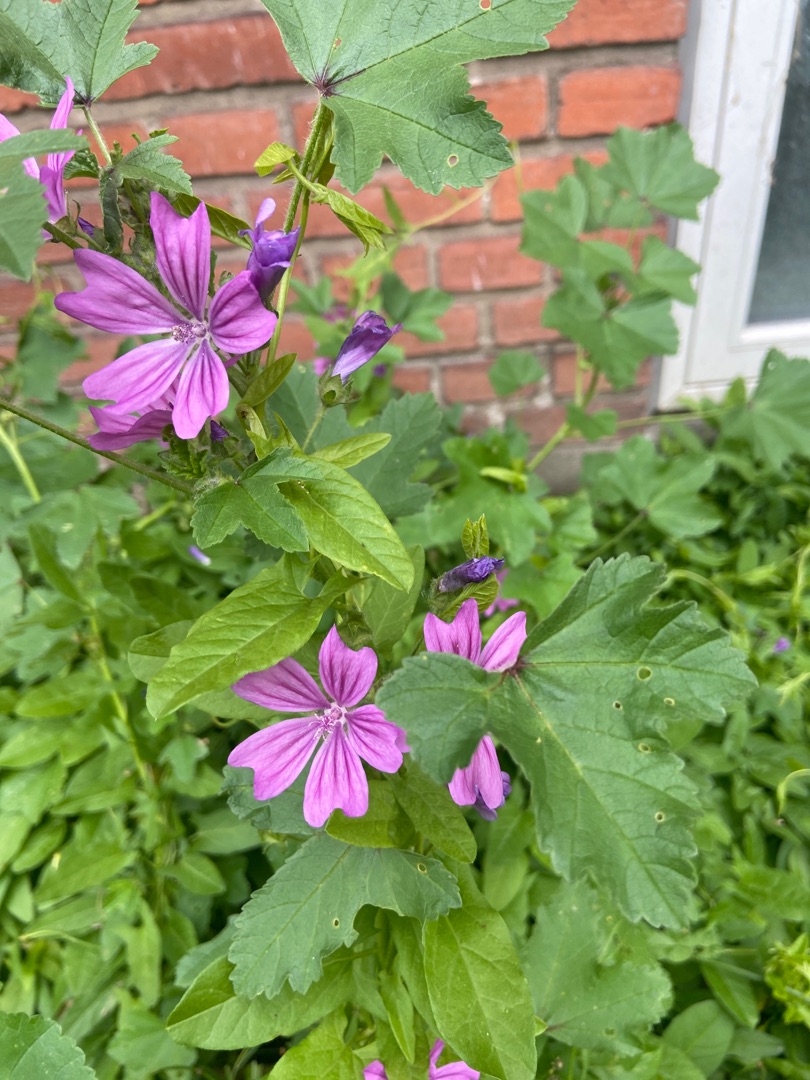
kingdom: Plantae
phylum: Tracheophyta
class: Magnoliopsida
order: Malvales
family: Malvaceae
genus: Malva
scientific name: Malva sylvestris
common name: Almindelig katost
